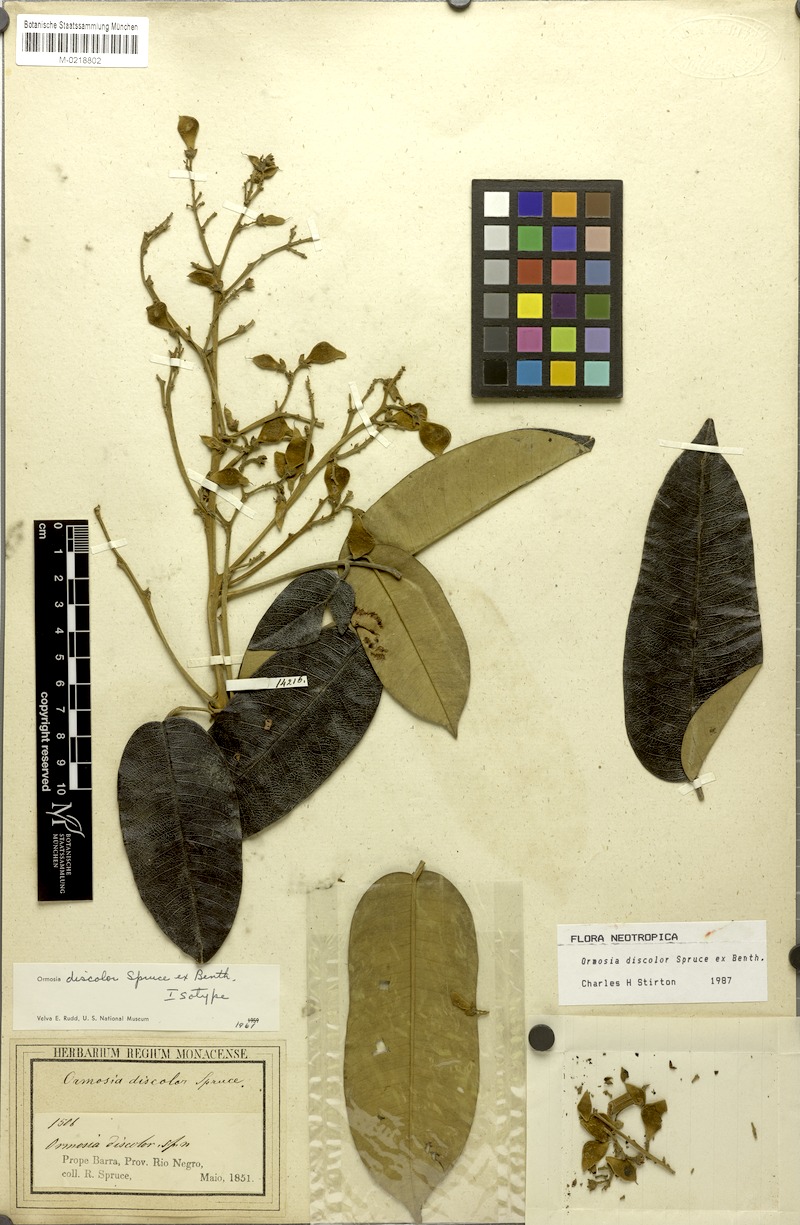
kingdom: Plantae
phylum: Tracheophyta
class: Magnoliopsida
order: Fabales
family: Fabaceae
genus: Ormosia
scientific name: Ormosia discolor
